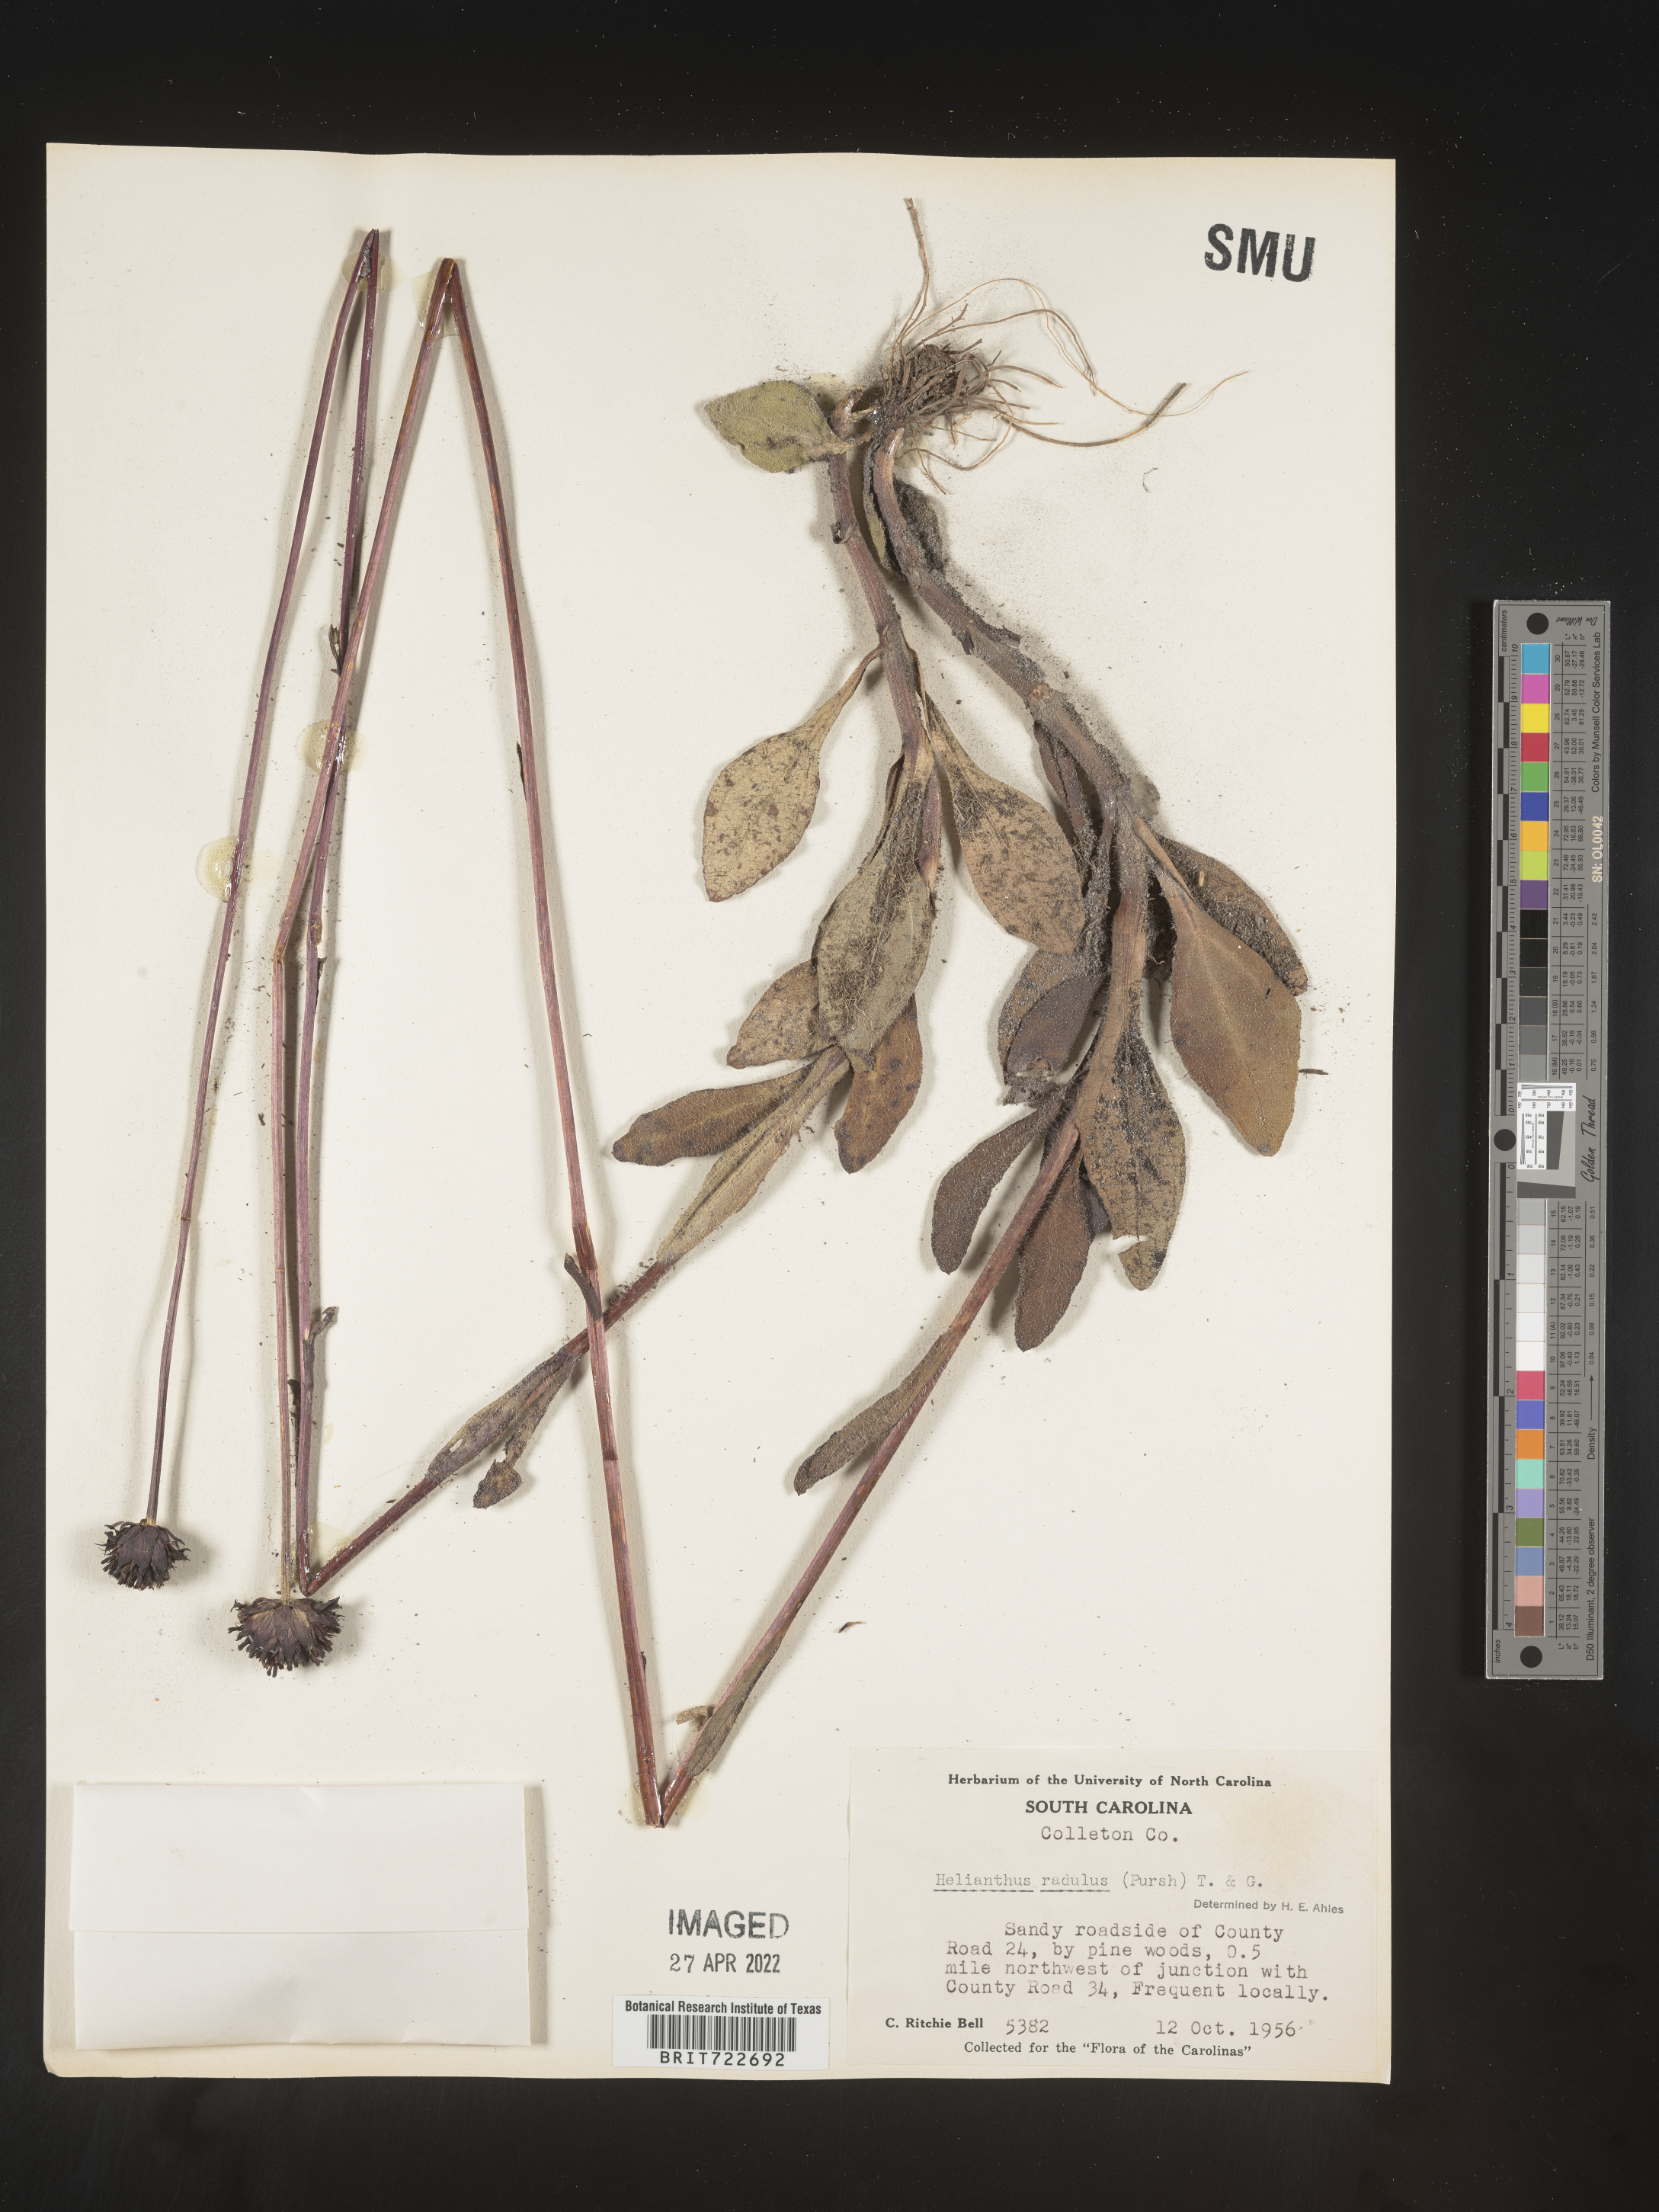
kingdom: Plantae
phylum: Tracheophyta
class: Magnoliopsida
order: Asterales
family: Asteraceae
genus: Helianthus
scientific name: Helianthus radula
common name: Pineland sunflower
